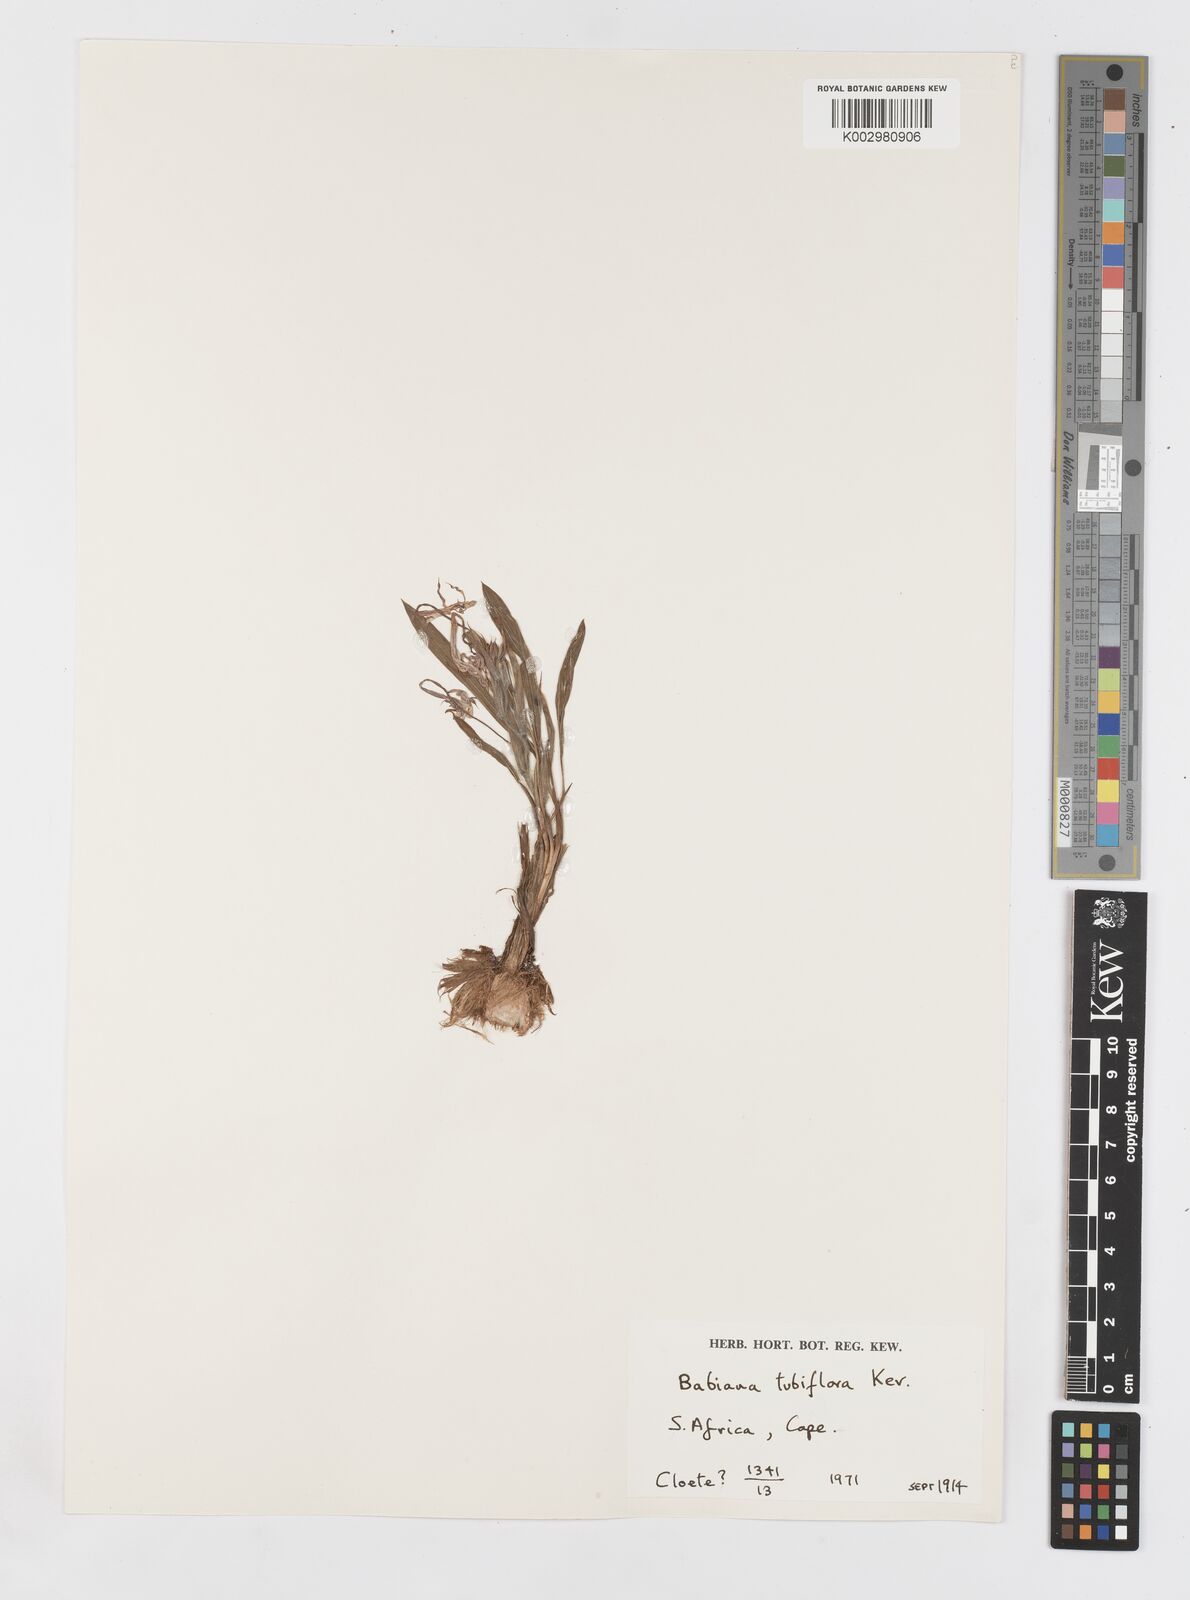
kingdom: Plantae
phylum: Tracheophyta
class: Liliopsida
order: Asparagales
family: Iridaceae
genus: Babiana
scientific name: Babiana tubiflora
